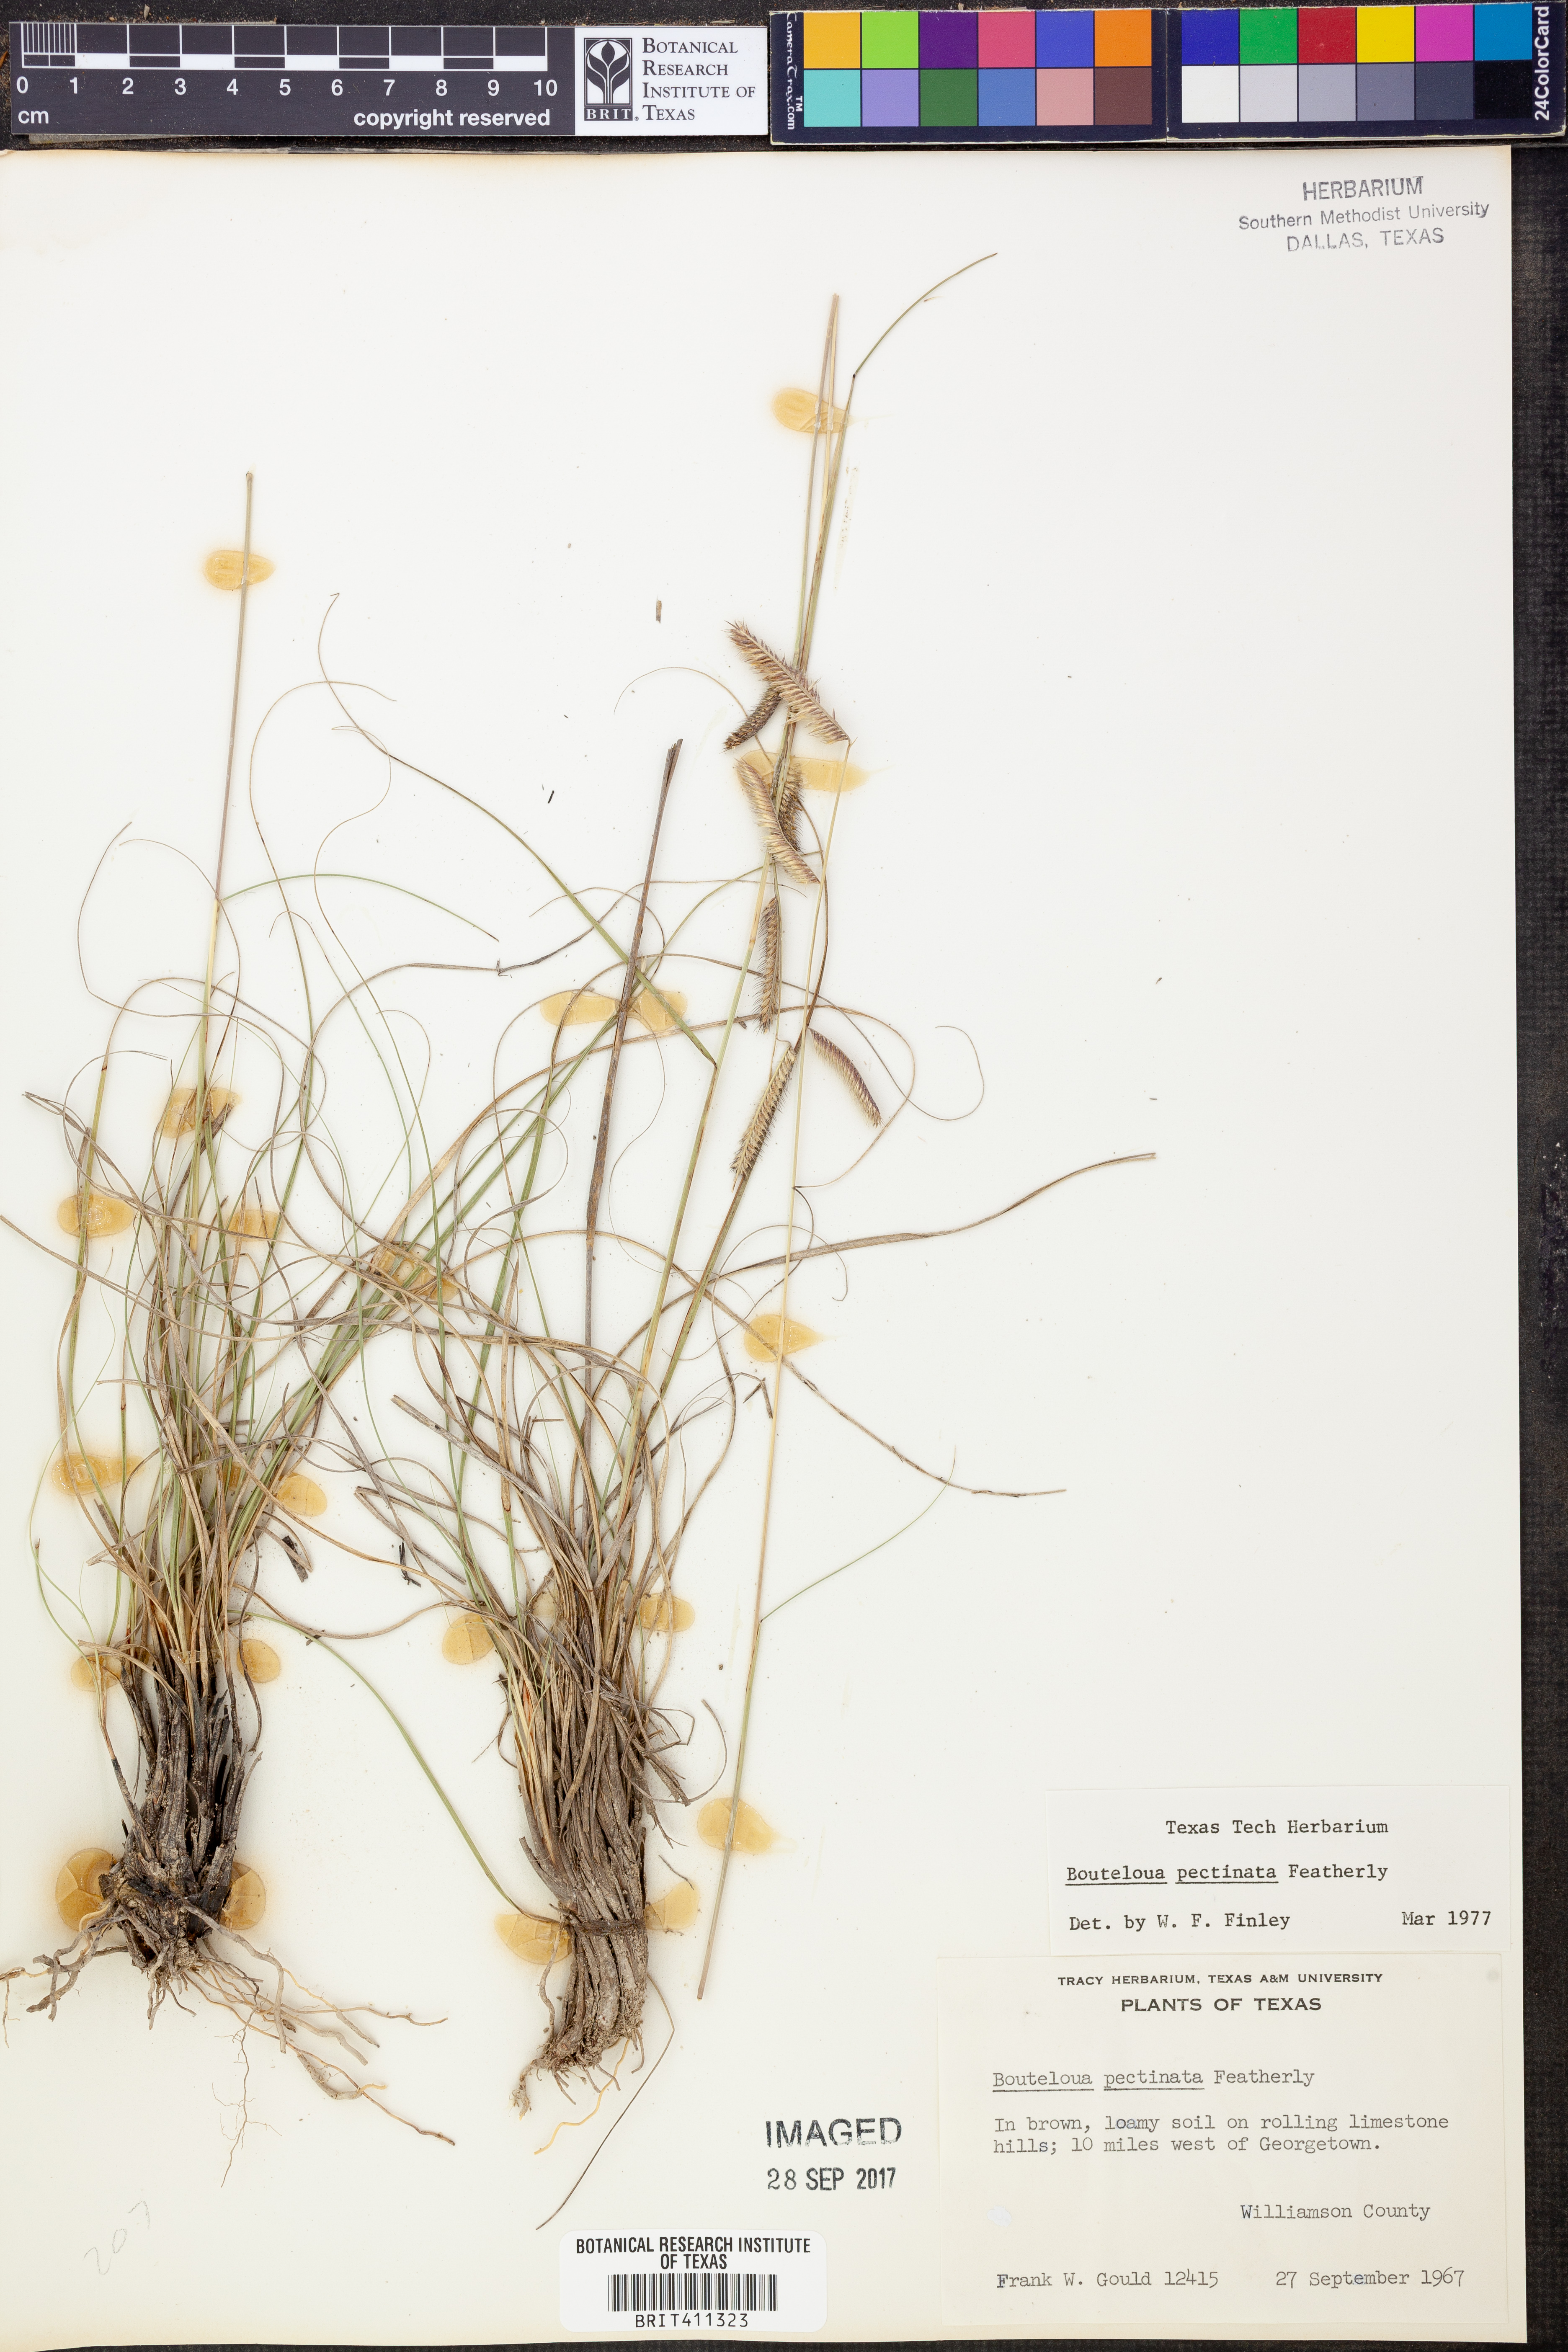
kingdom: Plantae
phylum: Tracheophyta
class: Liliopsida
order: Poales
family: Poaceae
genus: Bouteloua
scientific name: Bouteloua pectinata
